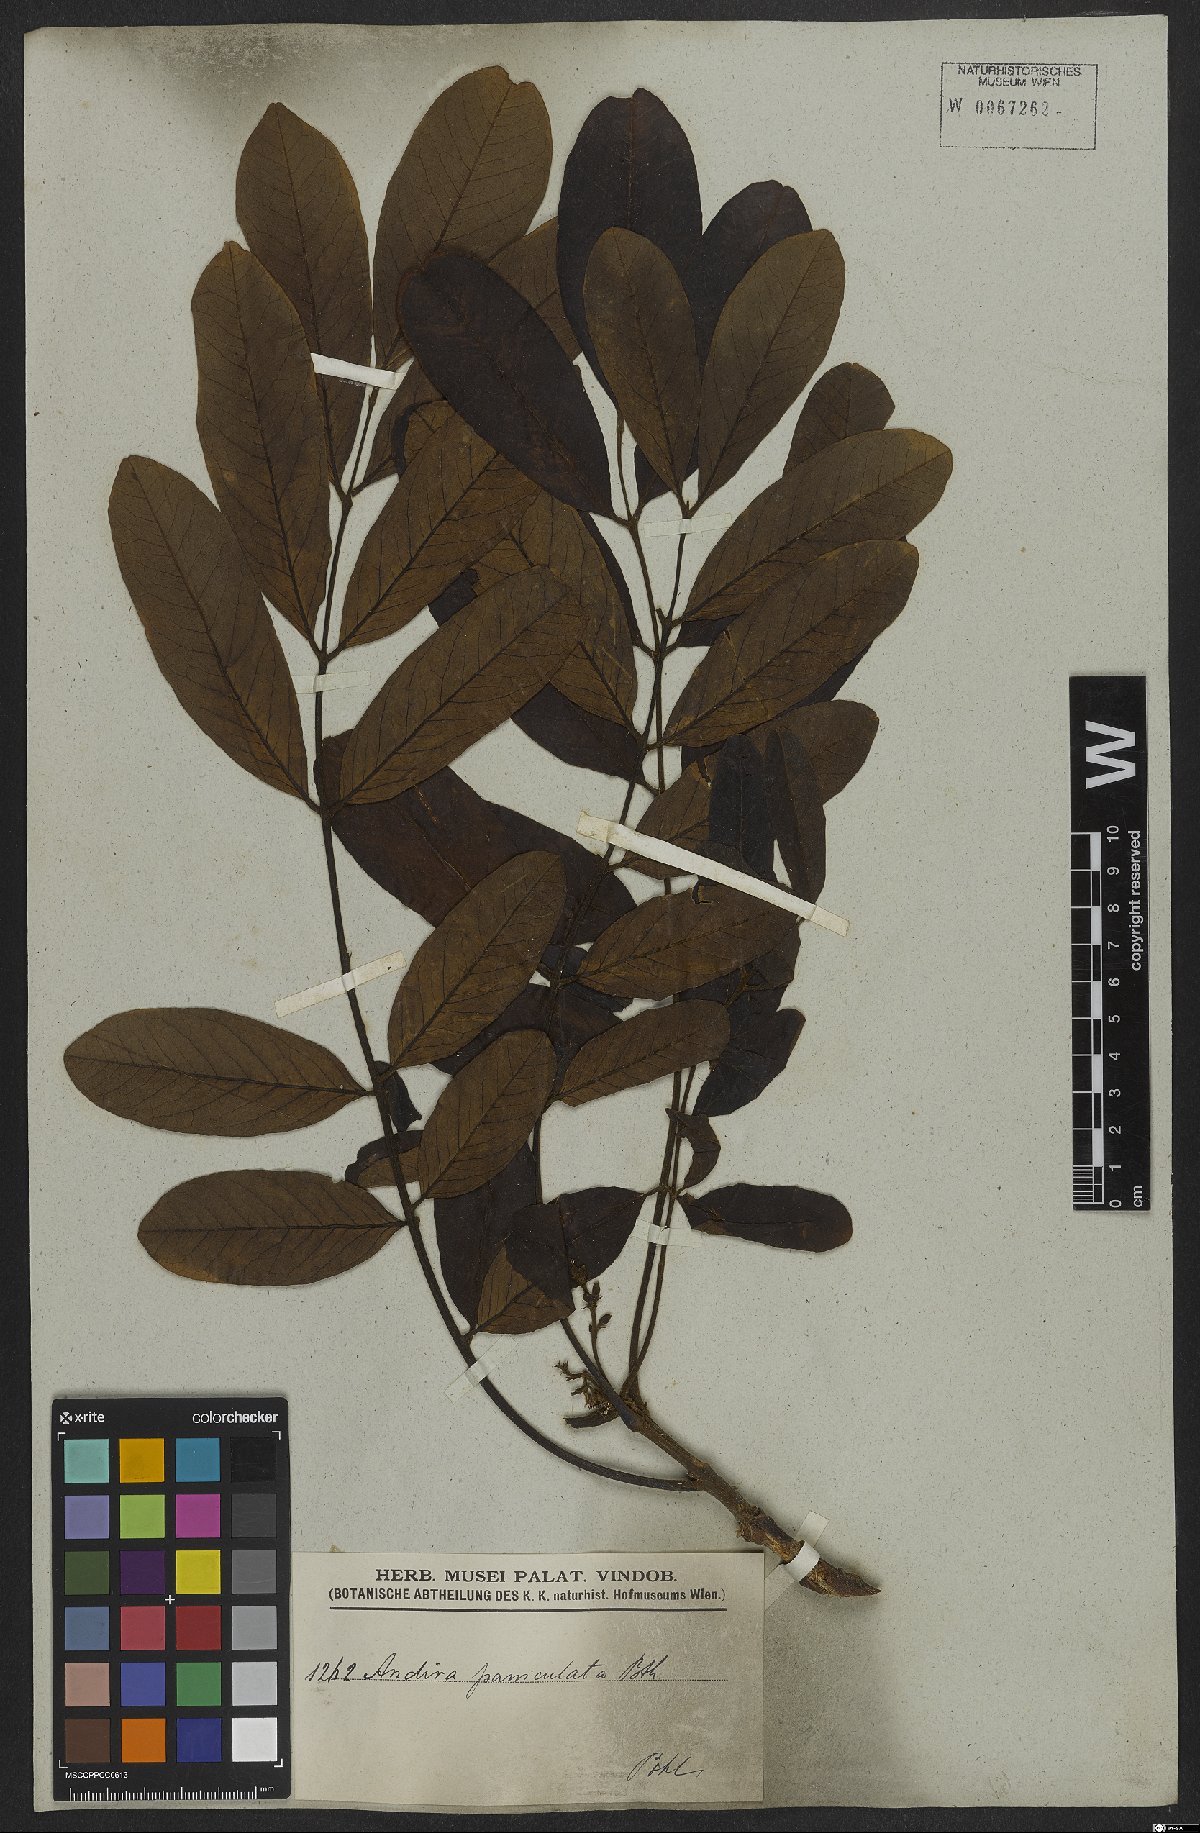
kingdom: Plantae
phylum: Tracheophyta
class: Magnoliopsida
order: Fabales
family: Fabaceae
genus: Andira
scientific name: Andira vermifuga
